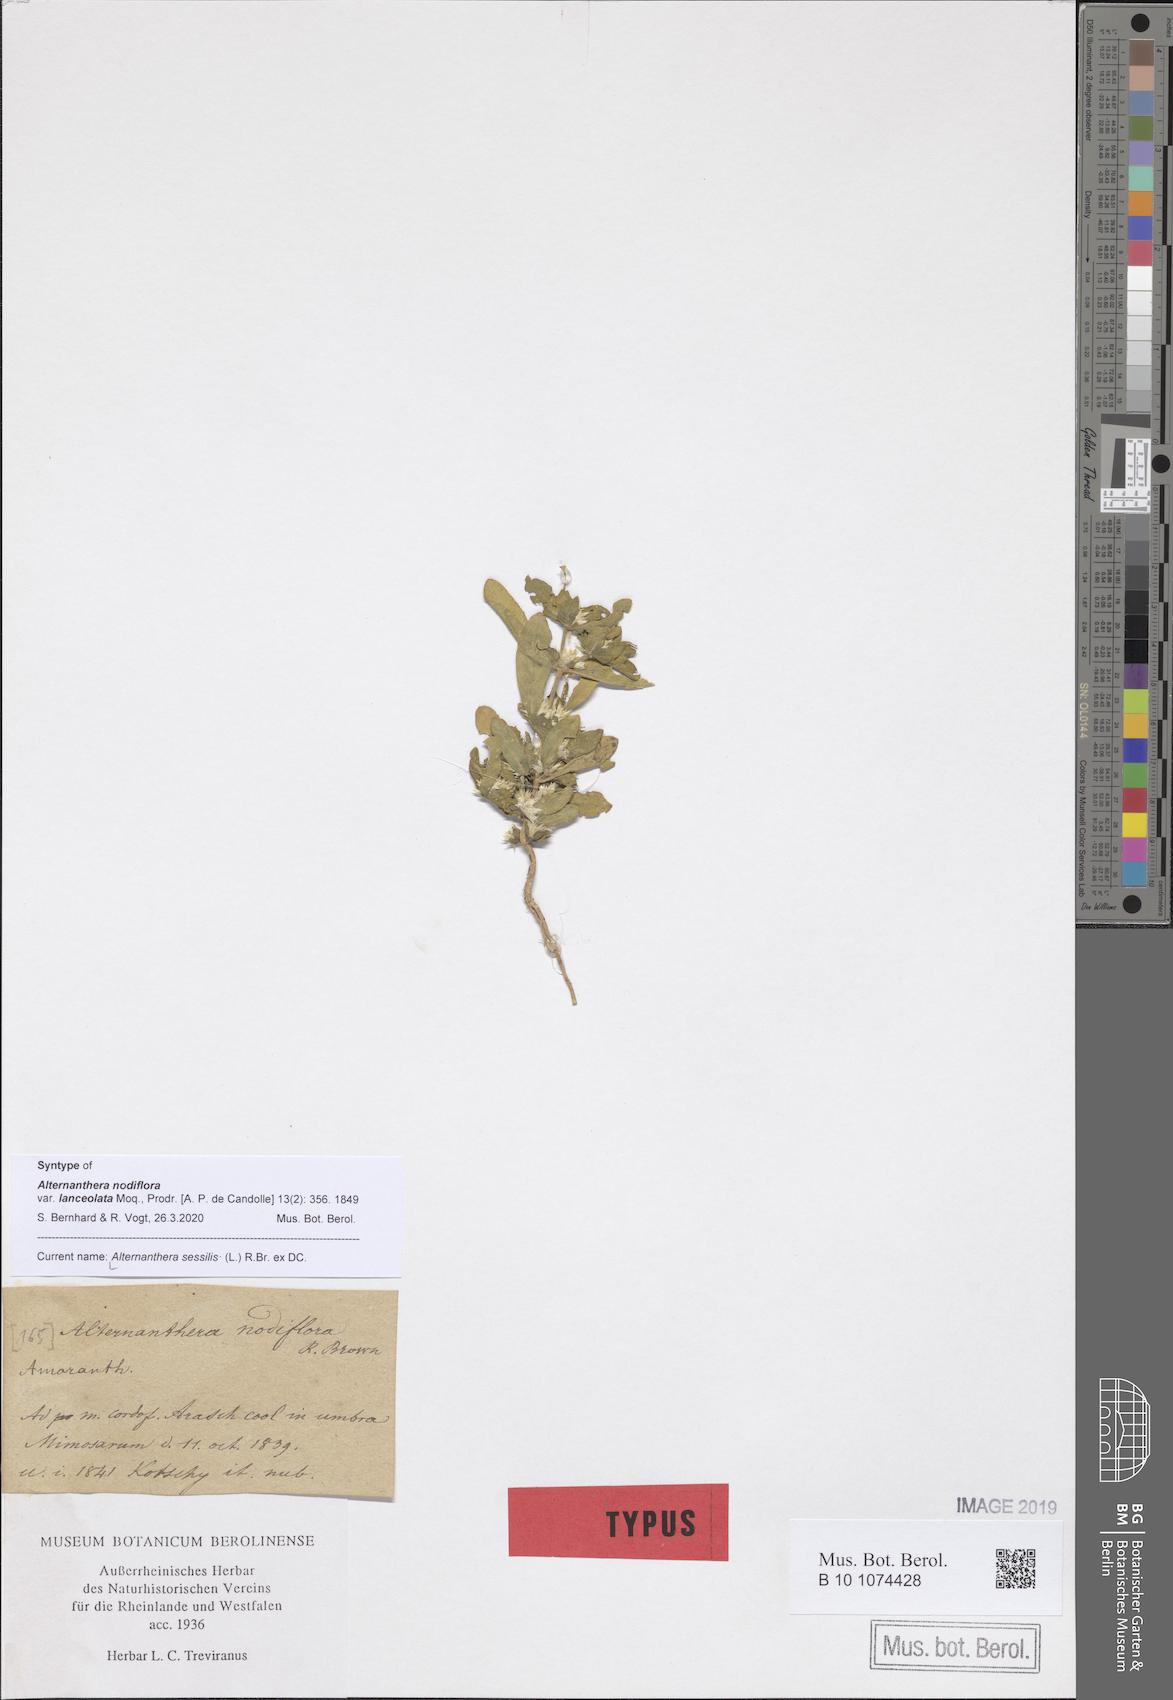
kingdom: Plantae
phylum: Tracheophyta
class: Magnoliopsida
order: Caryophyllales
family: Amaranthaceae
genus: Alternanthera
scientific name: Alternanthera sessilis
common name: Sessile joyweed
